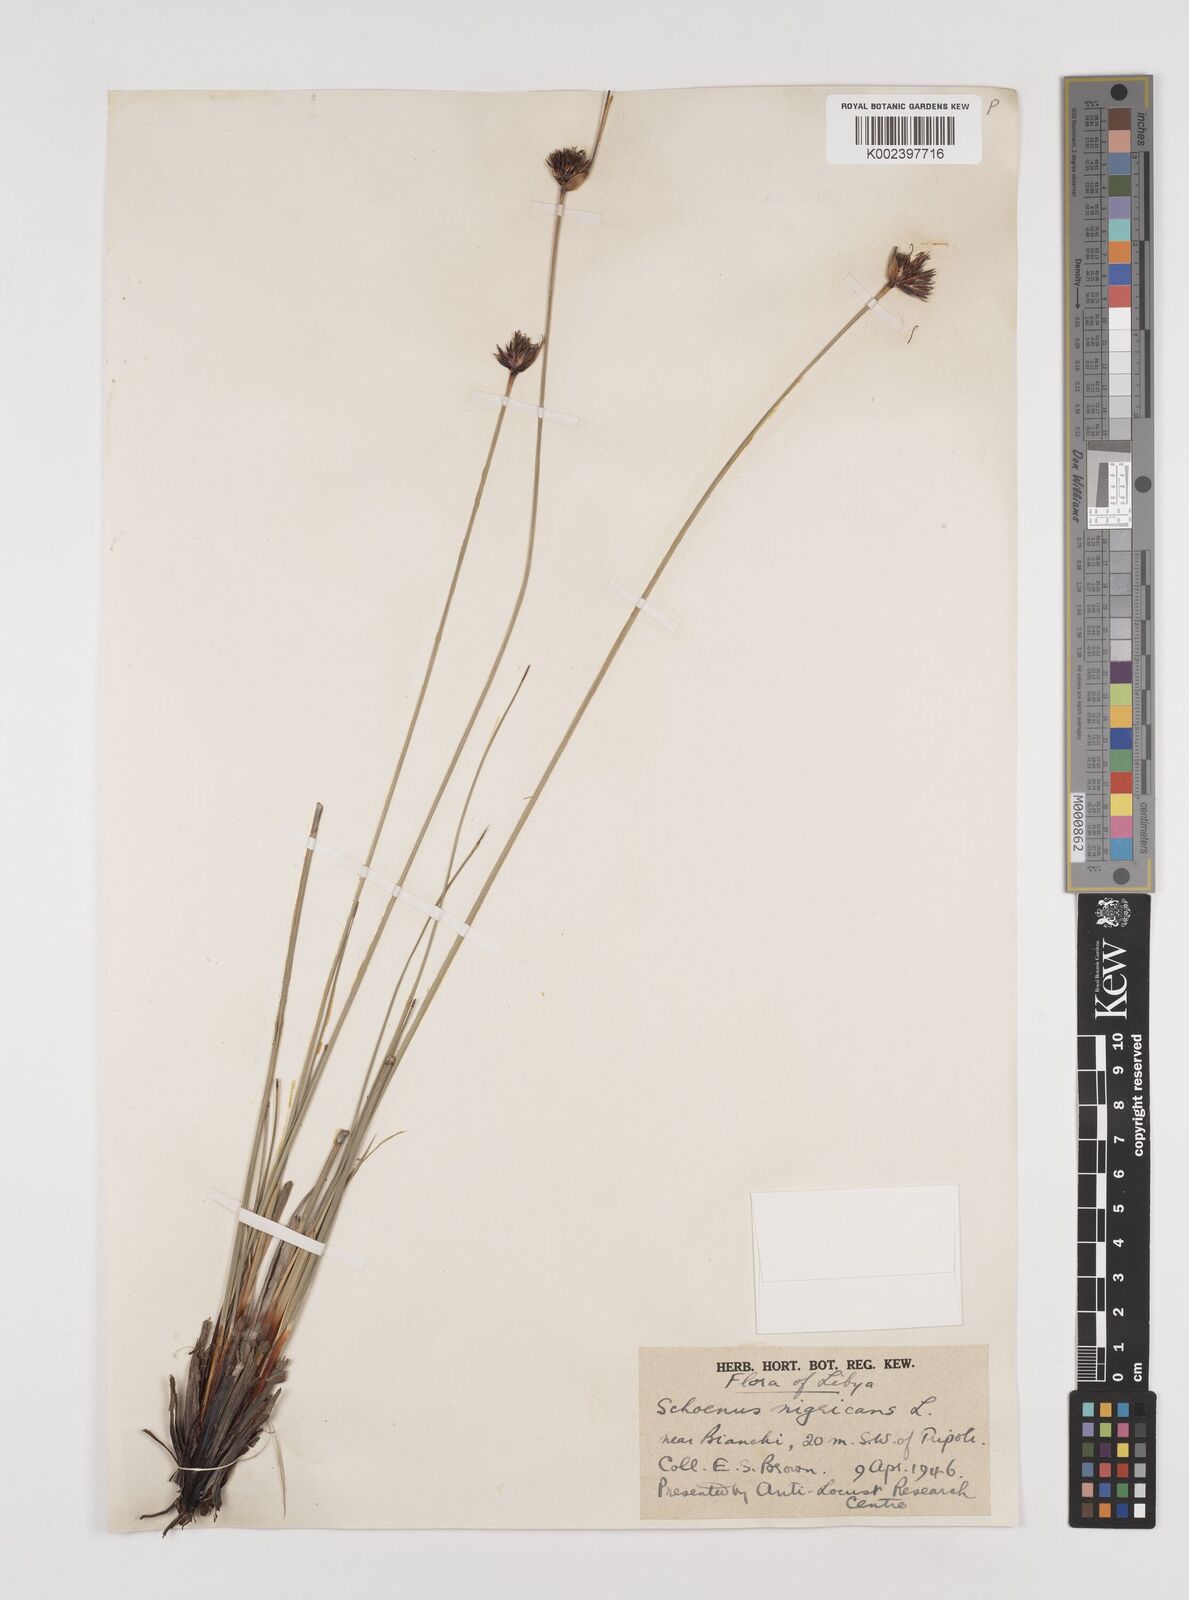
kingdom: Plantae
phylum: Tracheophyta
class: Liliopsida
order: Poales
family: Cyperaceae
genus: Schoenus
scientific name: Schoenus nigricans
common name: Black bog-rush
